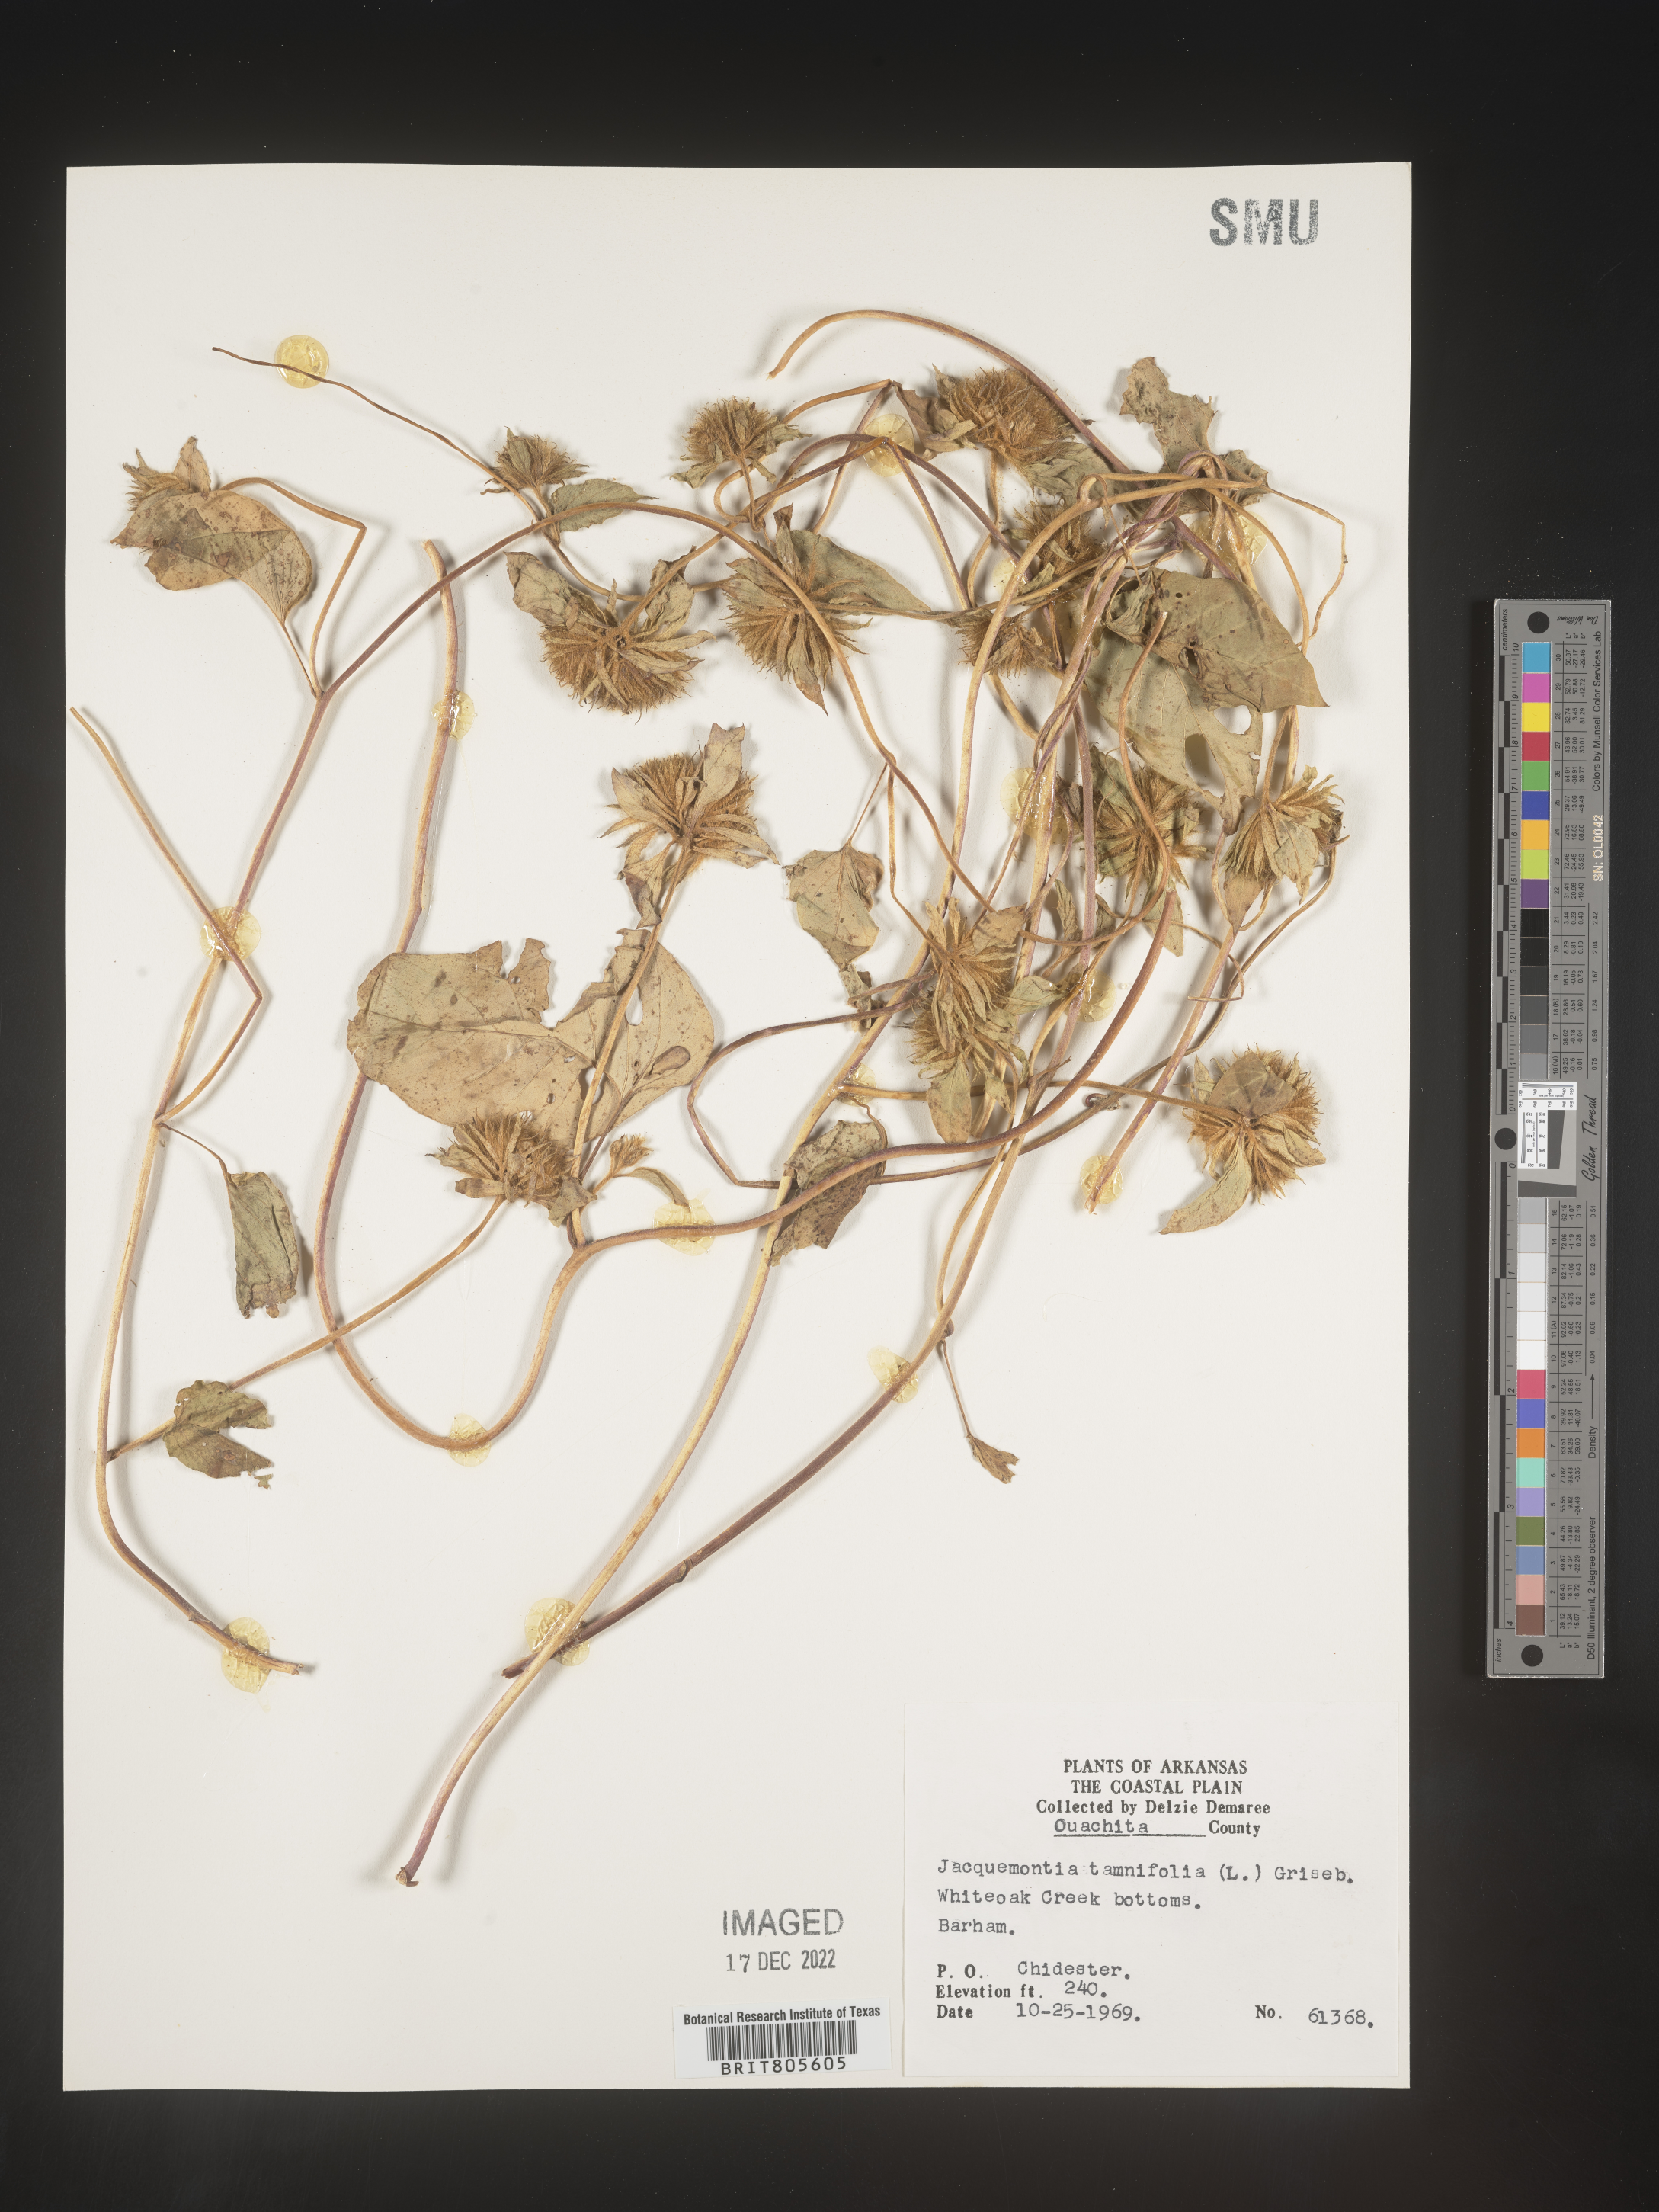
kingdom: Plantae
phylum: Tracheophyta
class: Magnoliopsida
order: Solanales
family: Convolvulaceae
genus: Jacquemontia
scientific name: Jacquemontia tamnifolia
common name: Hairy clustervine
